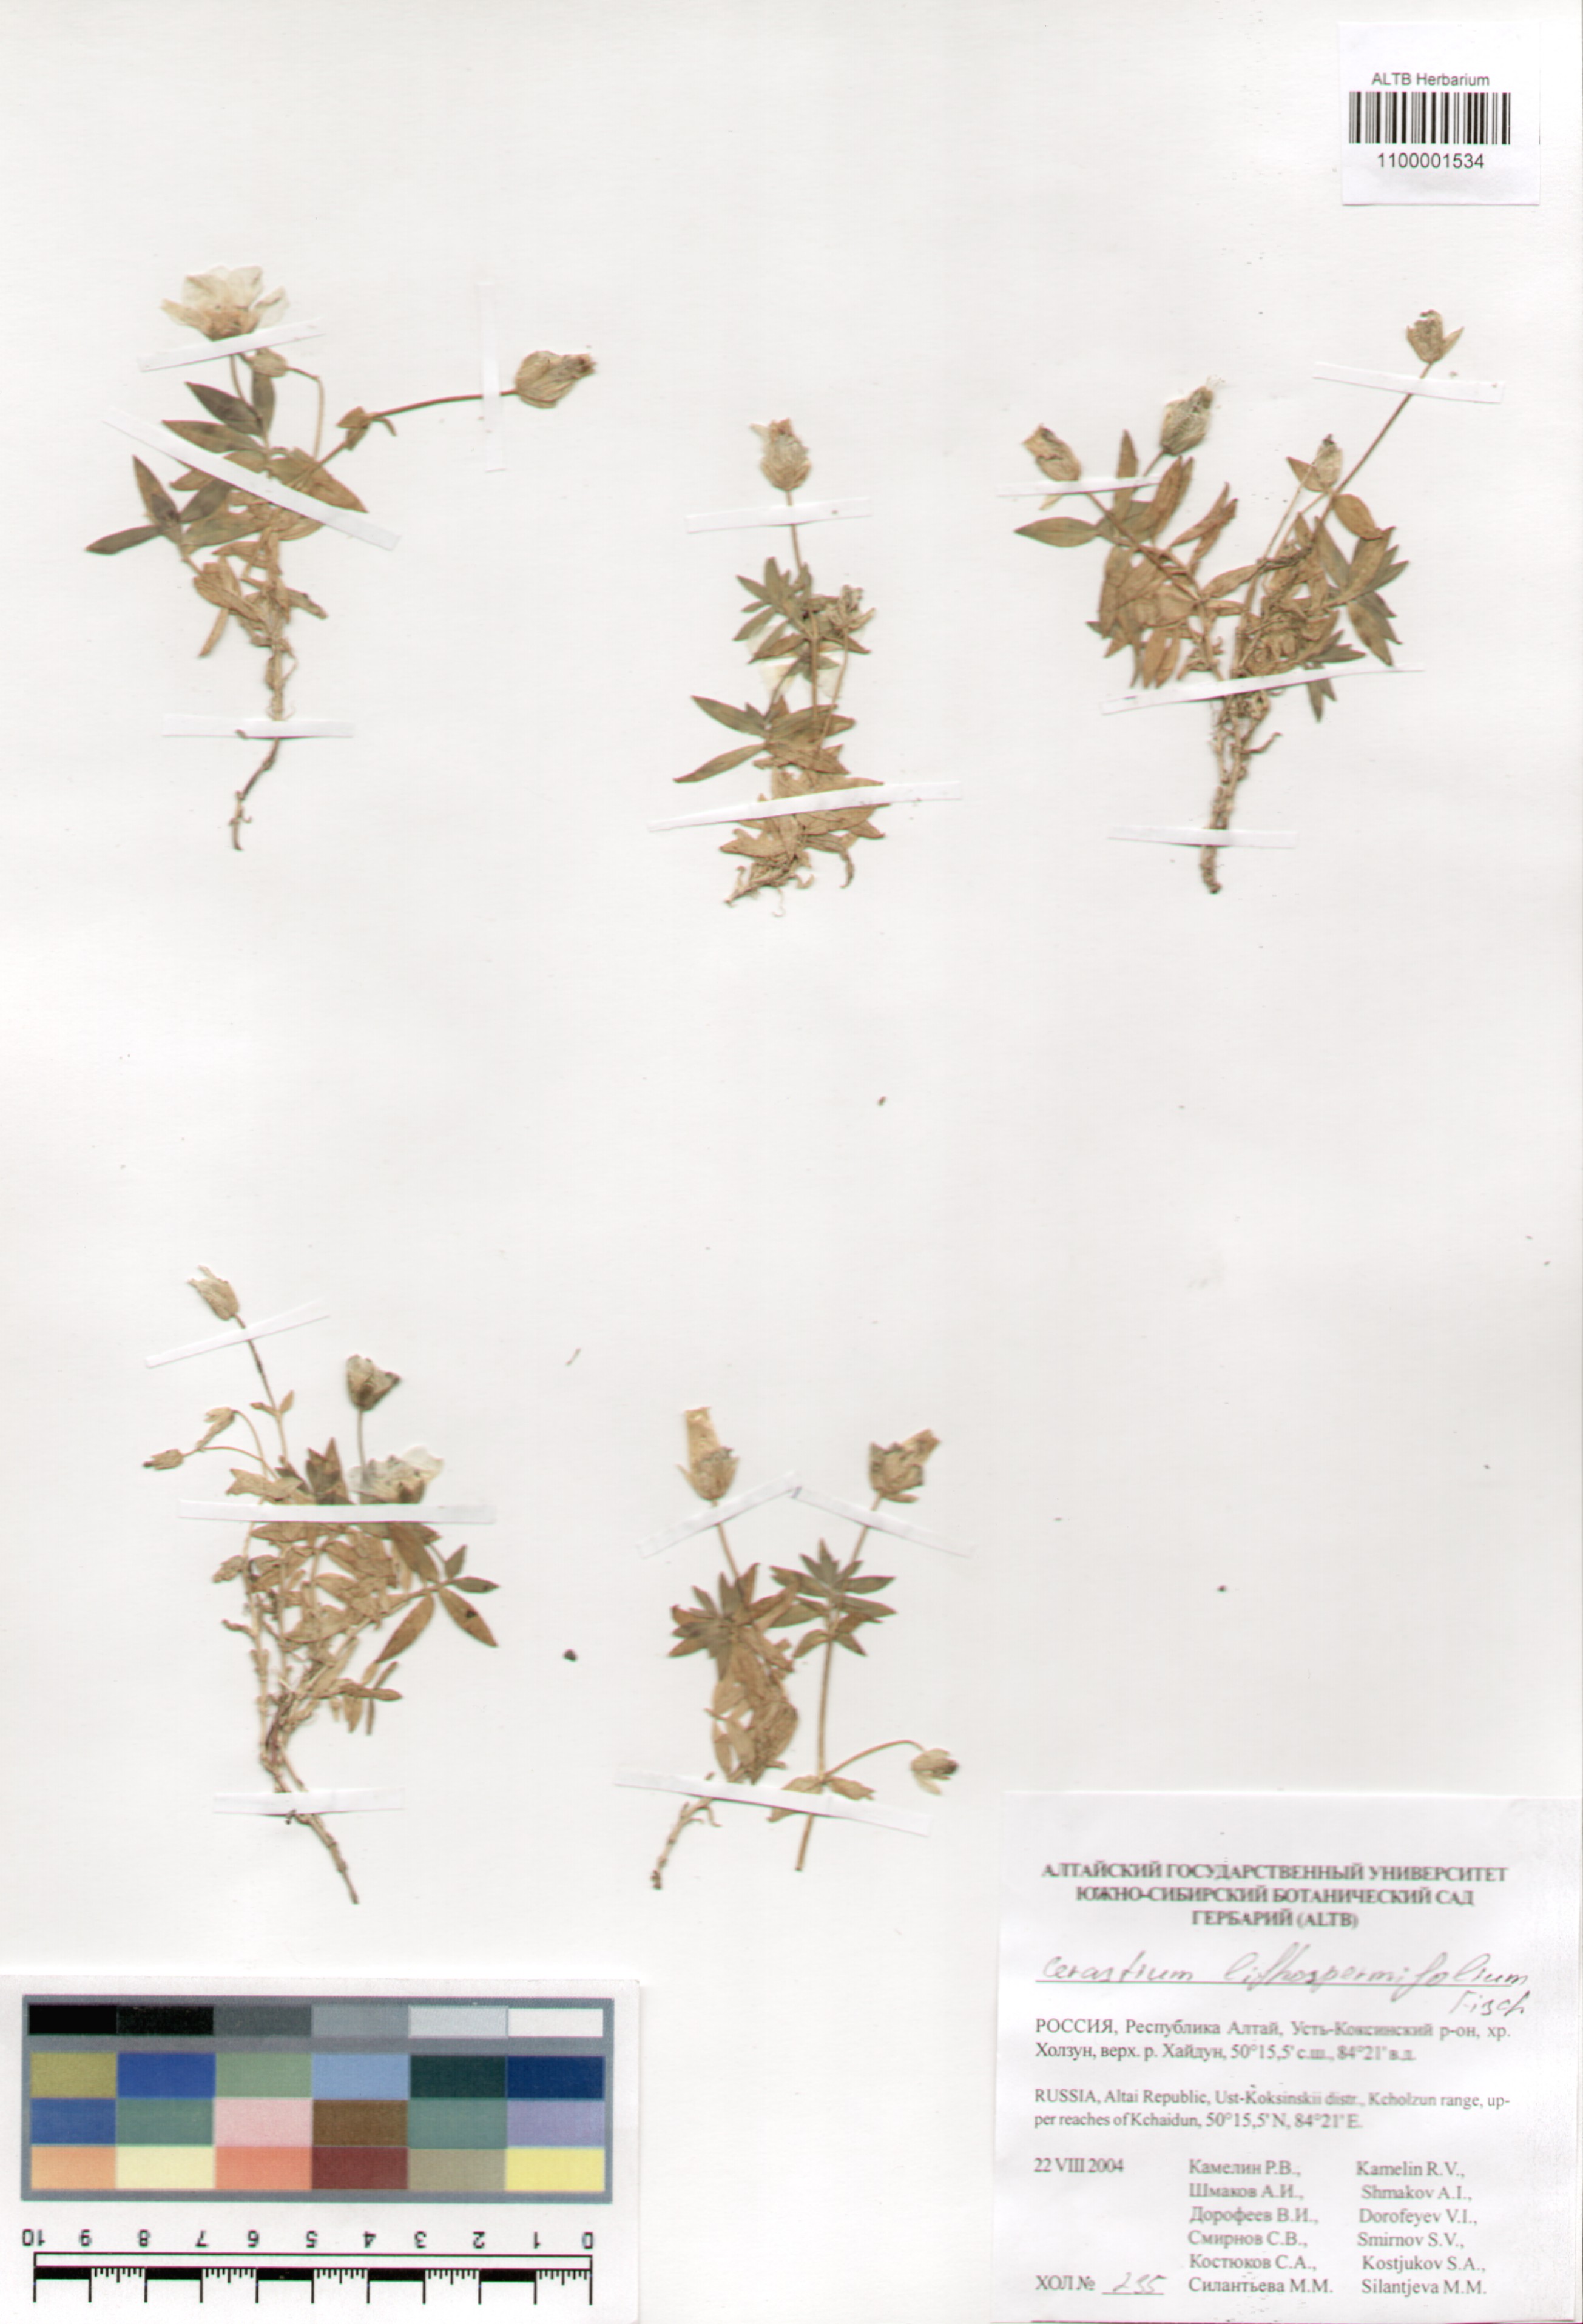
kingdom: Plantae
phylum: Tracheophyta
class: Magnoliopsida
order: Caryophyllales
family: Caryophyllaceae
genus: Cerastium
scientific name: Cerastium lithospermifolium
